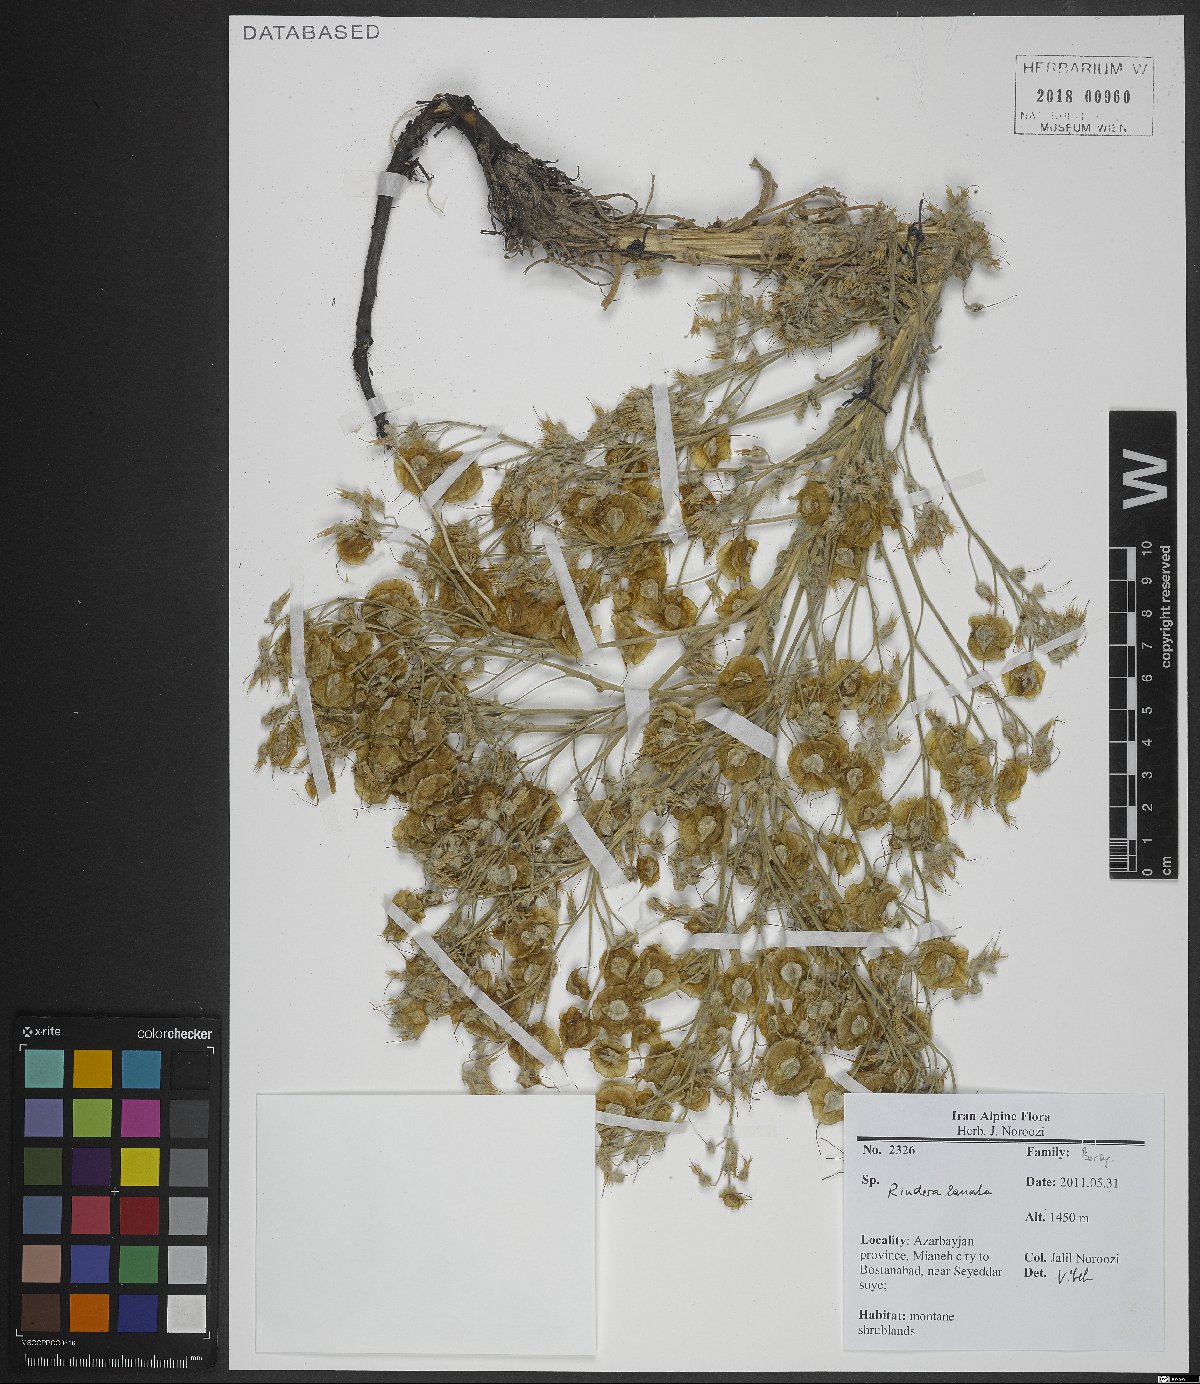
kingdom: Plantae
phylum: Tracheophyta
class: Magnoliopsida
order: Boraginales
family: Boraginaceae
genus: Rindera
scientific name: Rindera lanata
